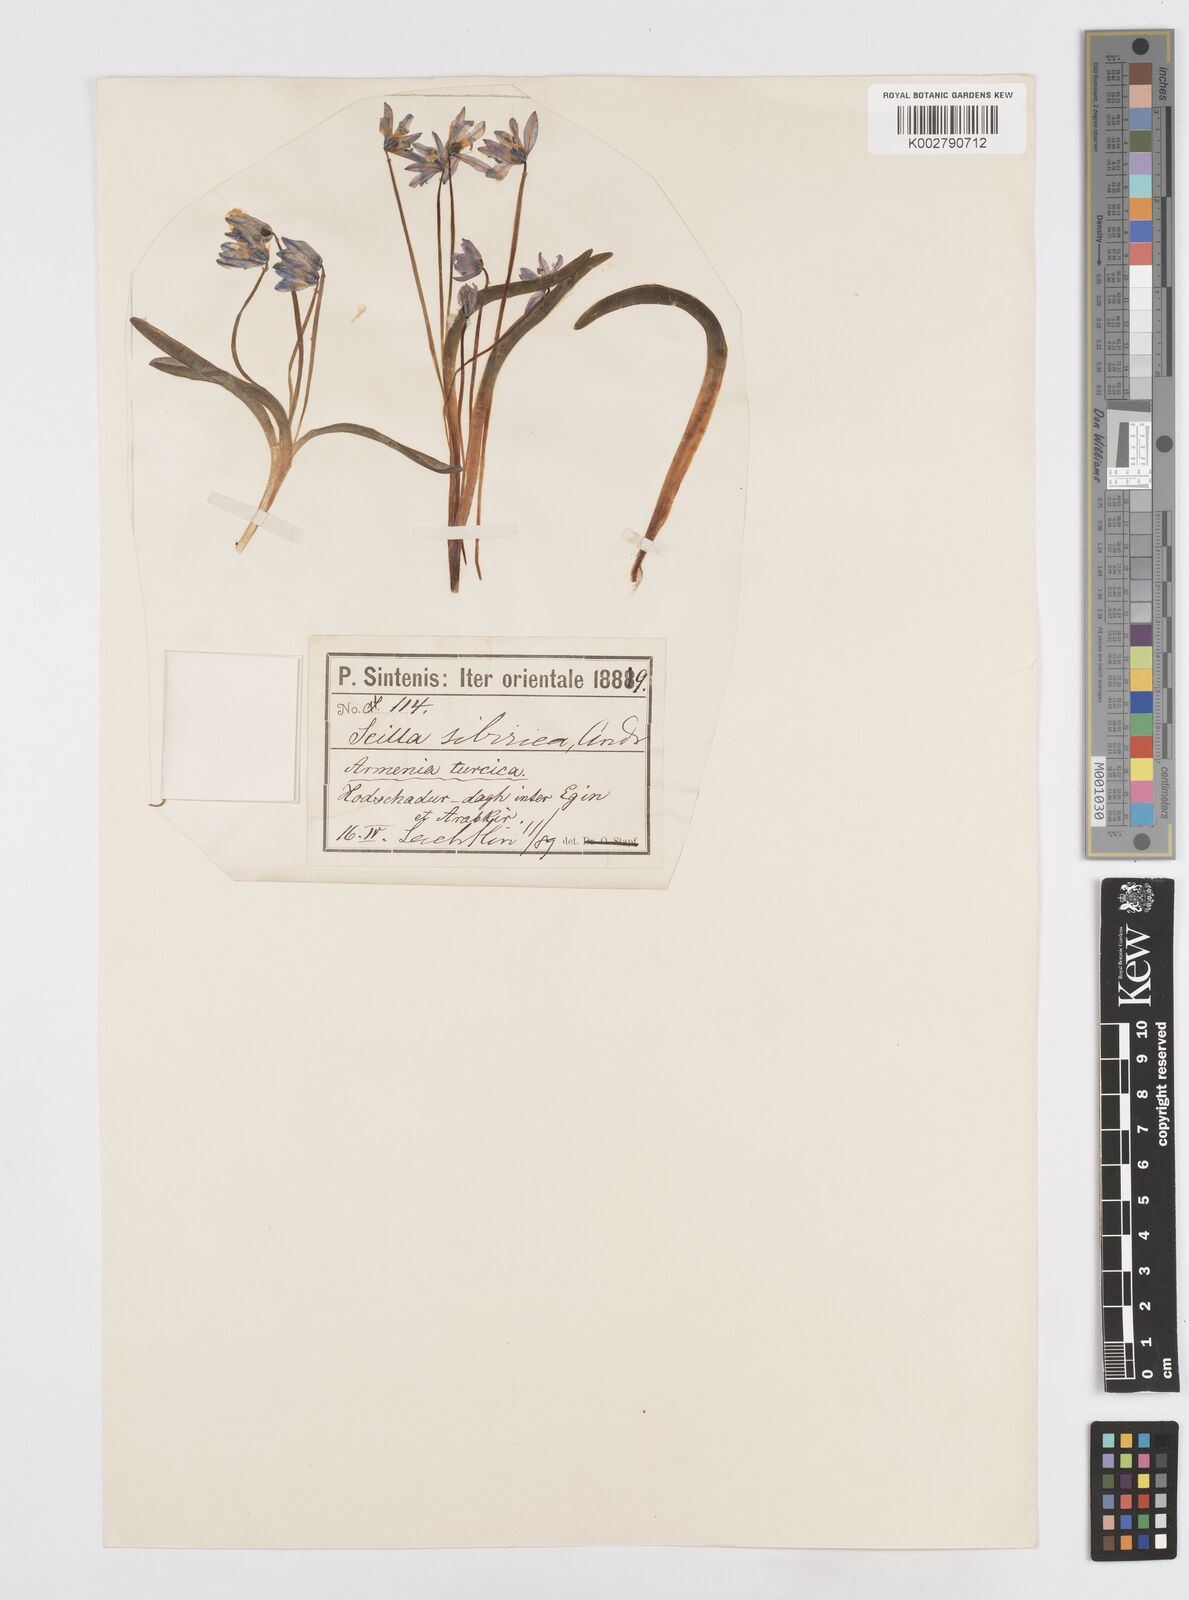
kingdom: Plantae
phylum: Tracheophyta
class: Liliopsida
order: Asparagales
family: Asparagaceae
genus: Scilla
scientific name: Scilla siberica
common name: Siberian squill
